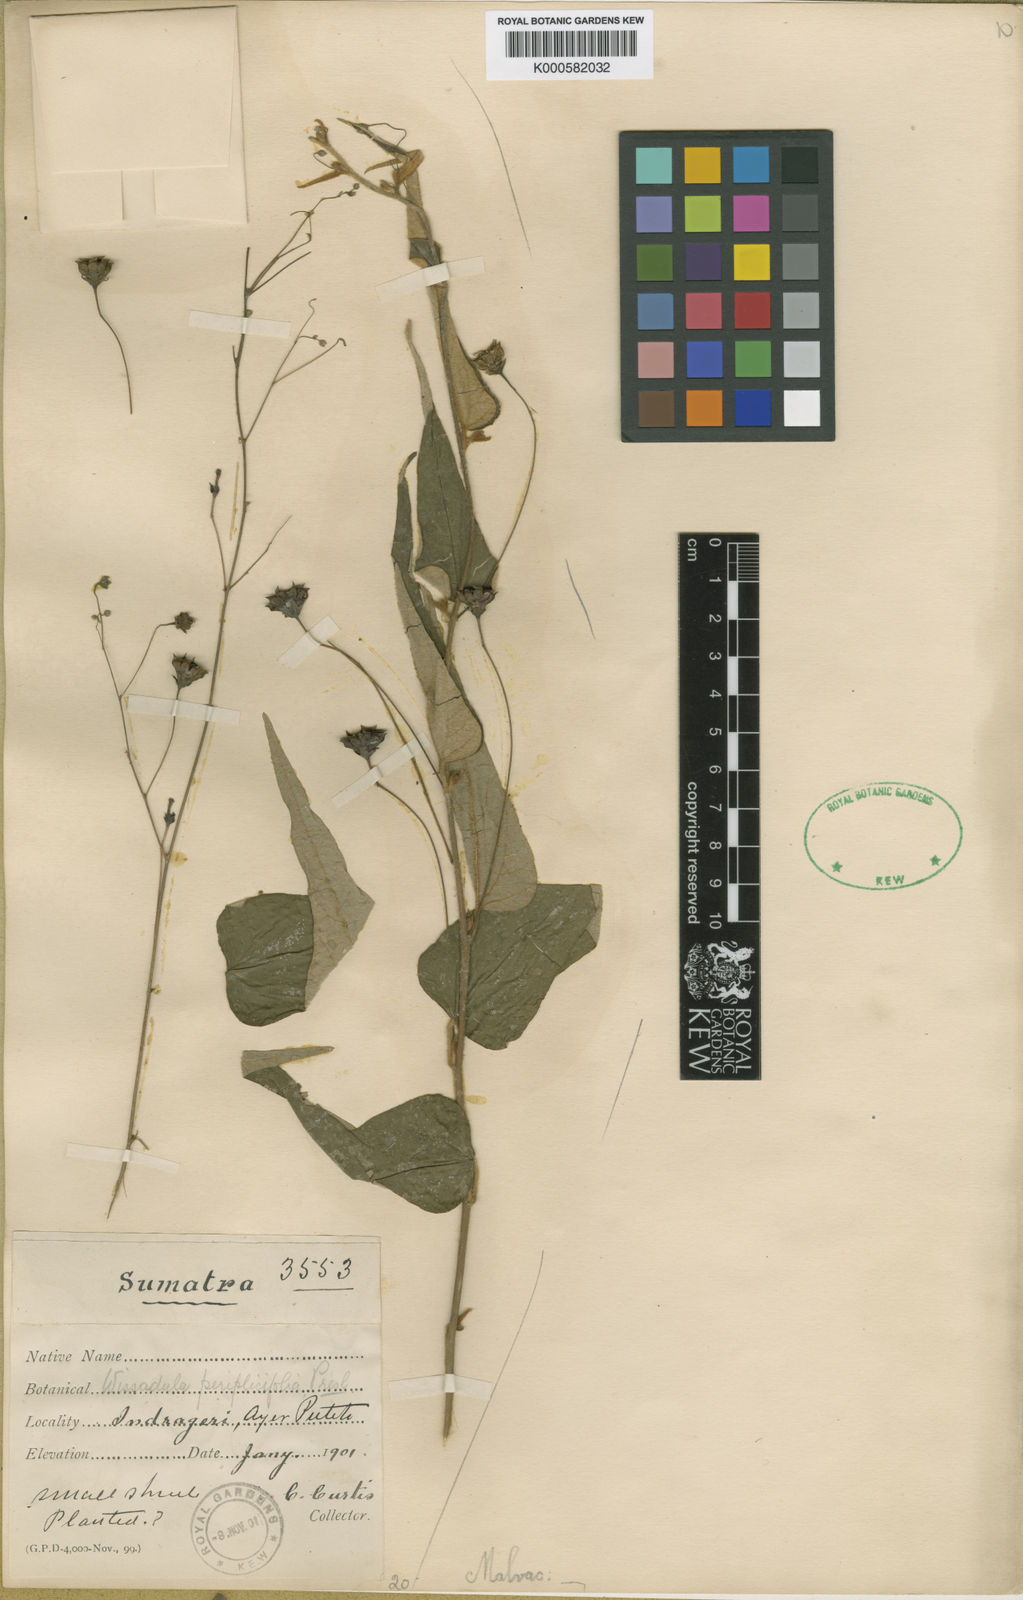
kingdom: Plantae
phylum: Tracheophyta
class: Magnoliopsida
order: Malvales
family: Malvaceae
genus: Wissadula
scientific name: Wissadula periplocifolia
